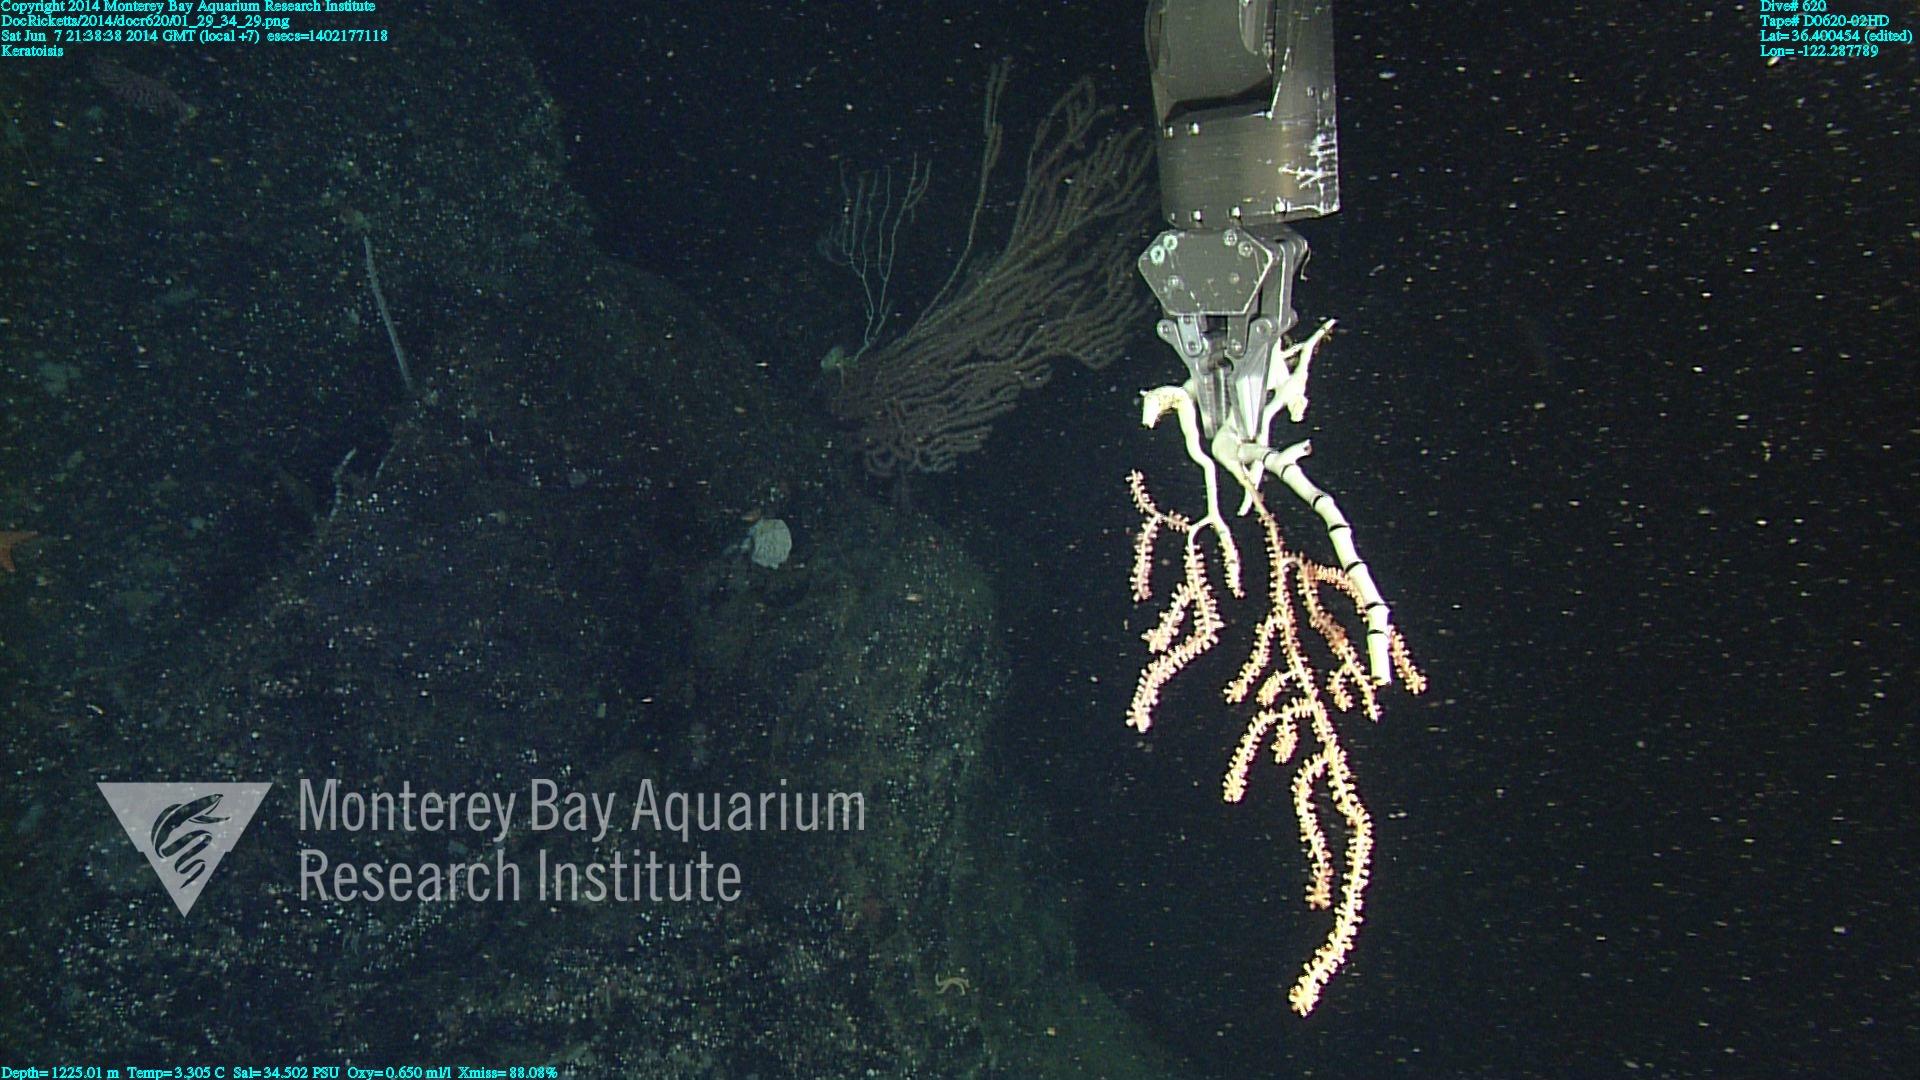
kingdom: Animalia
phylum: Cnidaria
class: Anthozoa
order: Scleralcyonacea
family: Keratoisididae
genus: Keratoisis
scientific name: Keratoisis
